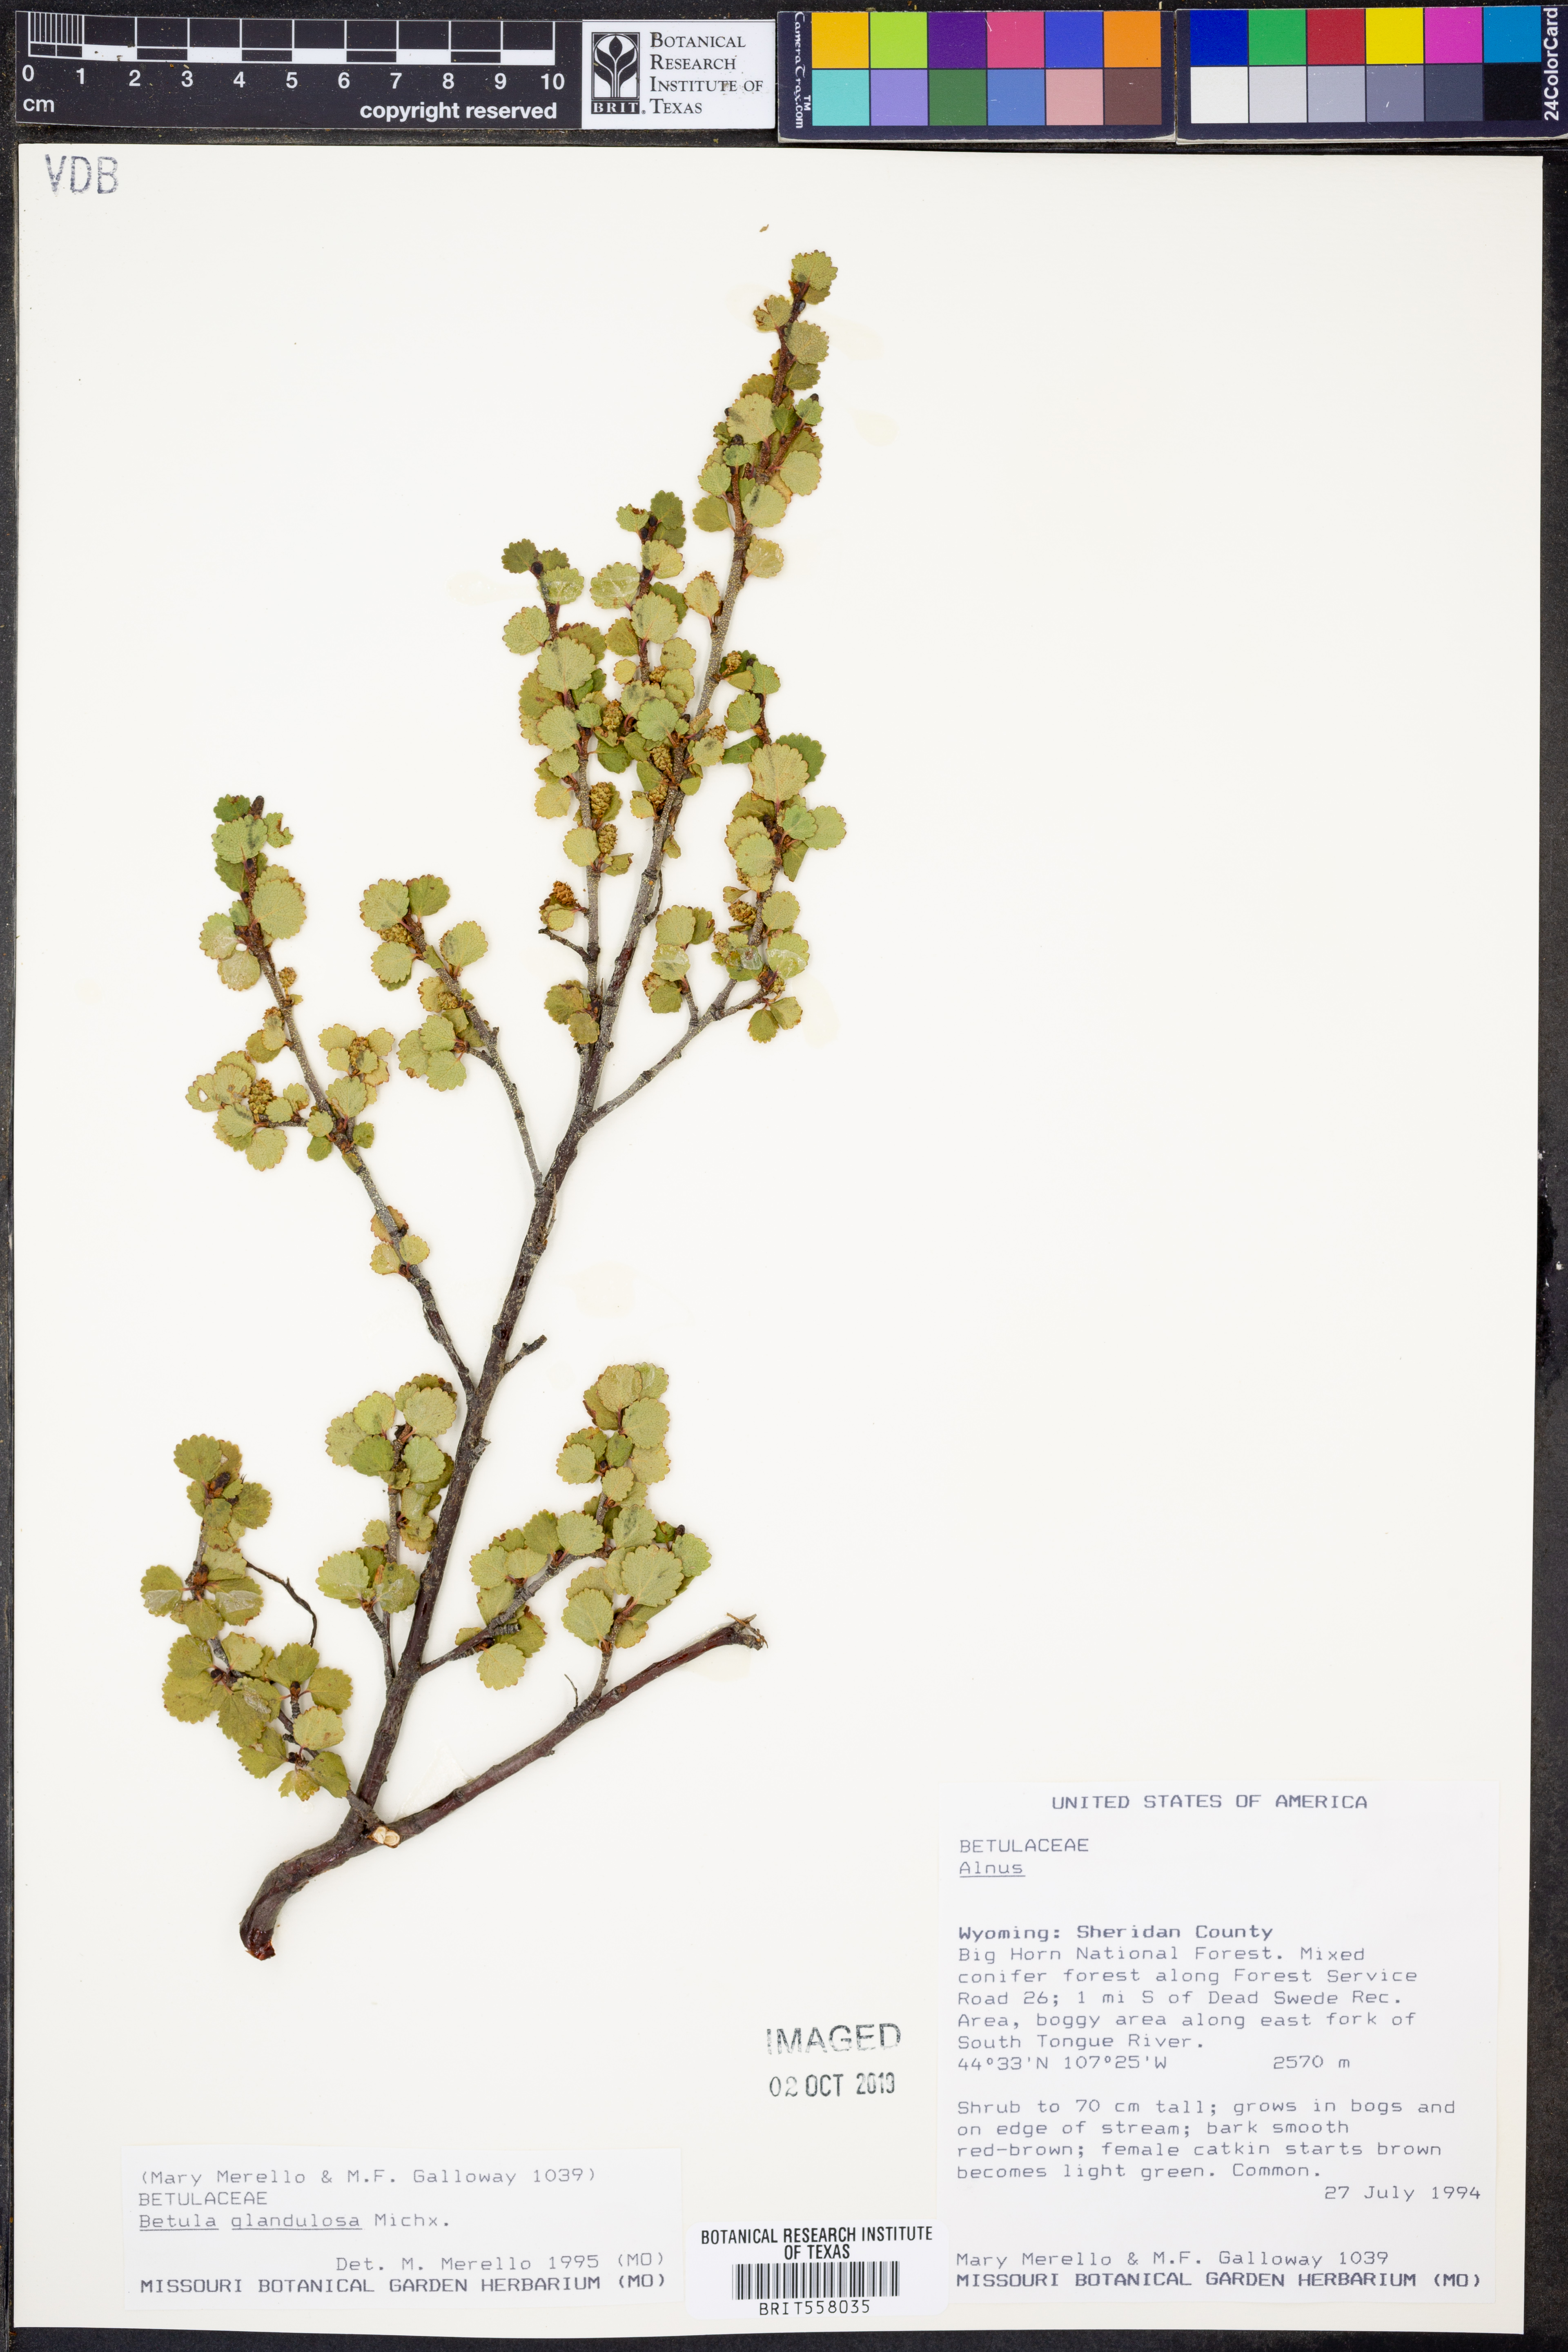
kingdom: Plantae
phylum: Tracheophyta
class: Magnoliopsida
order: Fagales
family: Betulaceae
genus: Betula
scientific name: Betula glandulosa
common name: Dwarf birch
